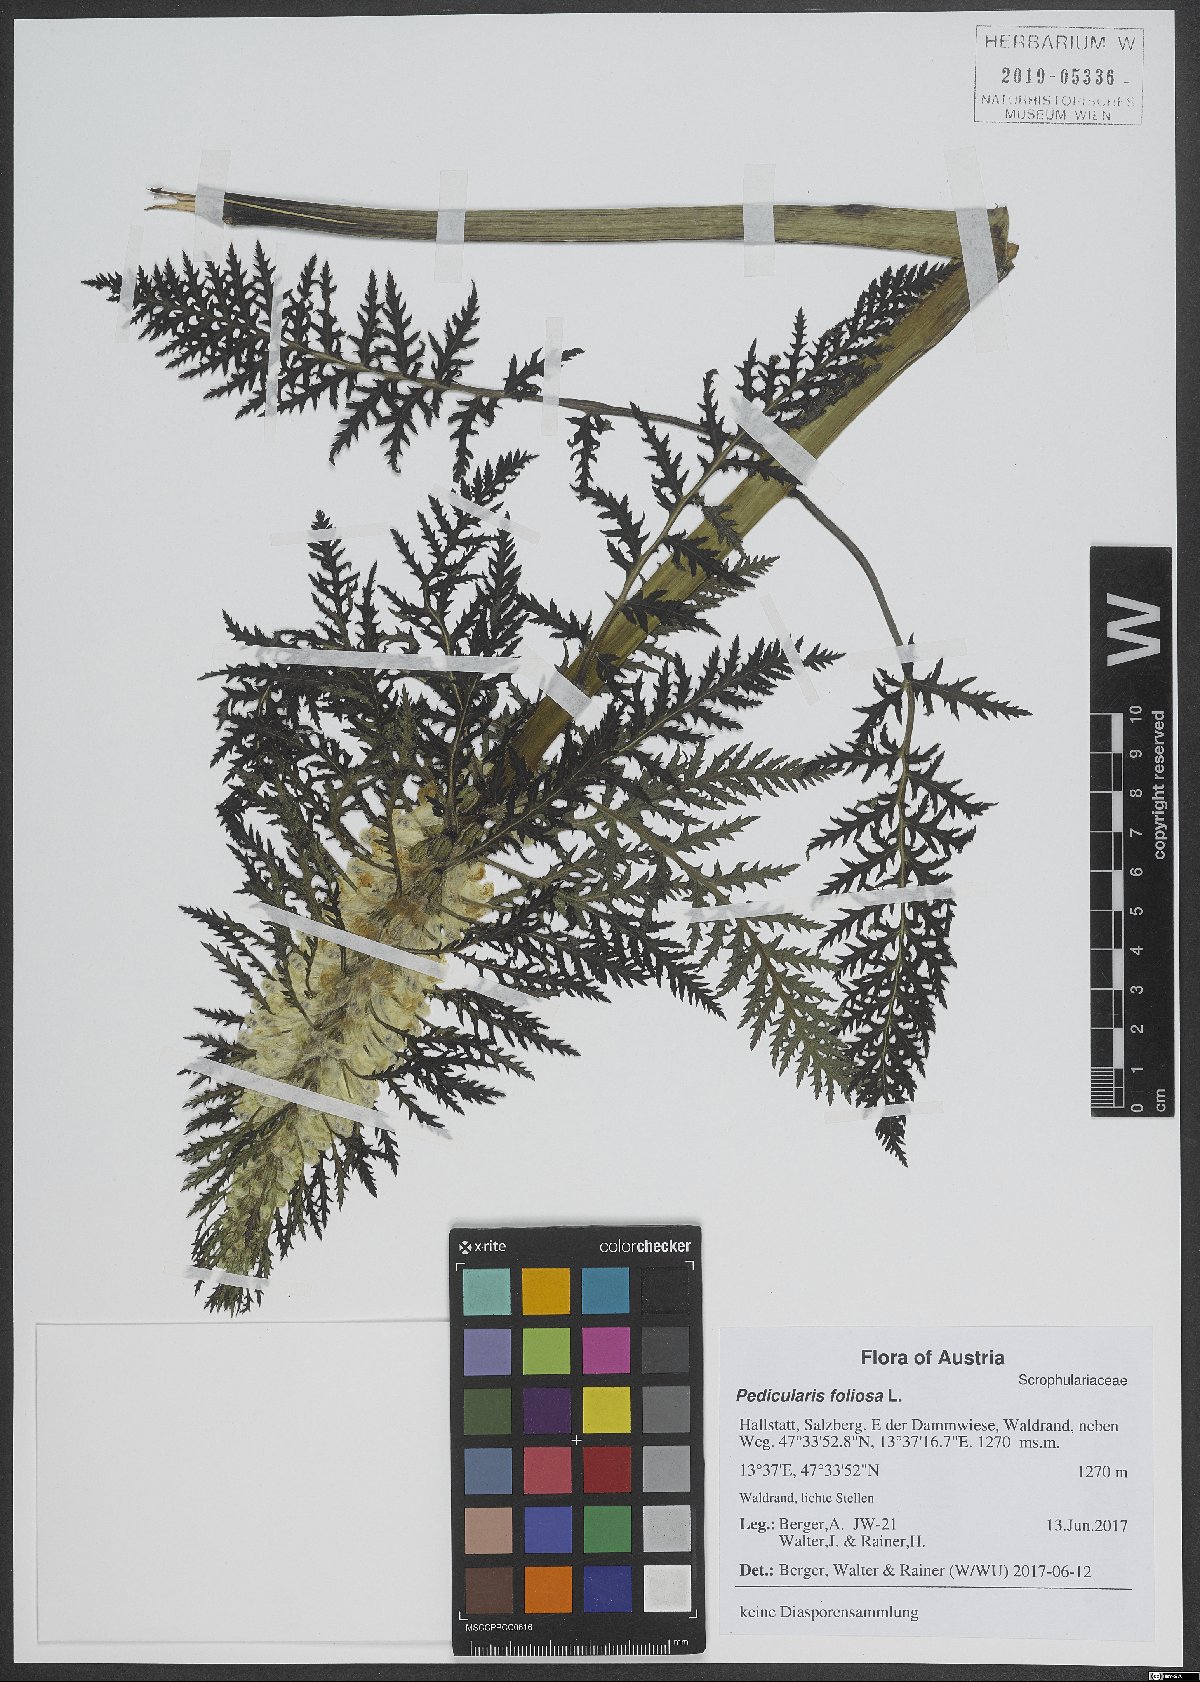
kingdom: Plantae
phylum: Tracheophyta
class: Magnoliopsida
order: Lamiales
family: Orobanchaceae
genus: Pedicularis
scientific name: Pedicularis foliosa
